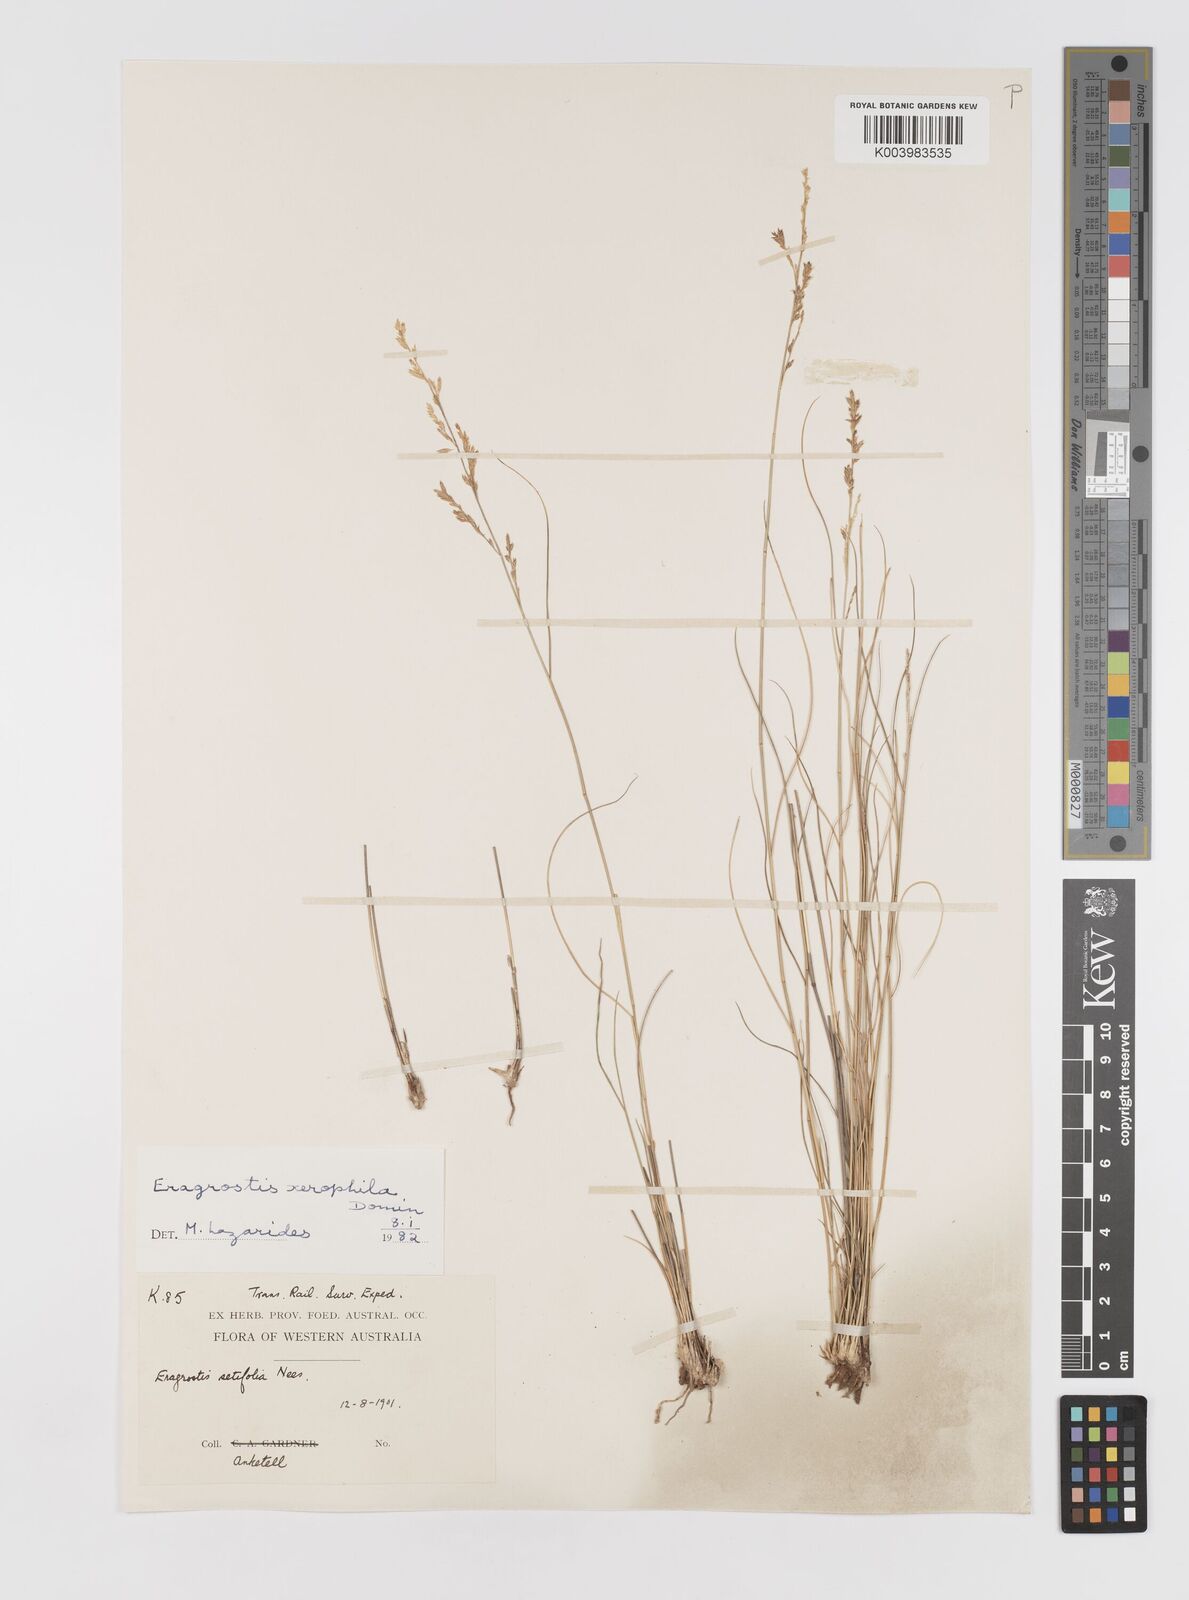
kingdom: Plantae
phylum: Tracheophyta
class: Liliopsida
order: Poales
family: Poaceae
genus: Eragrostis
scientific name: Eragrostis xerophila
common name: Wire wandarrie grass
